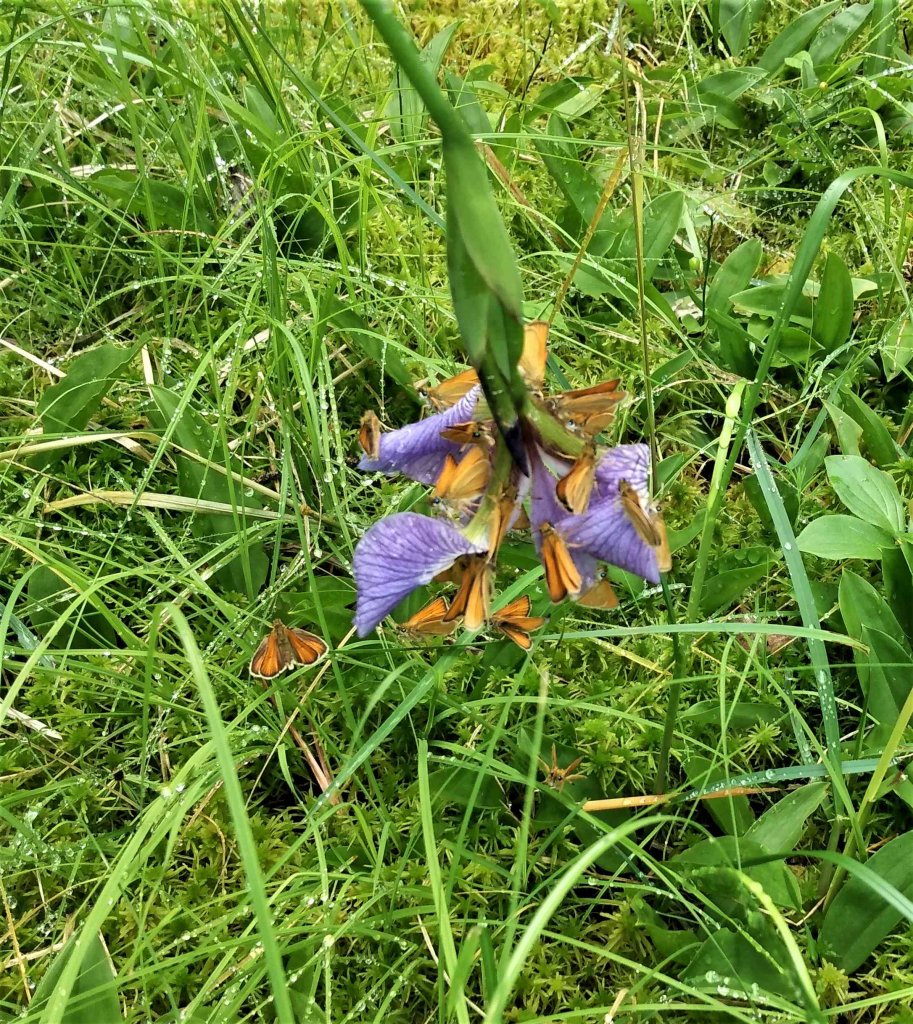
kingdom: Animalia
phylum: Arthropoda
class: Insecta
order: Lepidoptera
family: Hesperiidae
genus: Thymelicus
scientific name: Thymelicus lineola
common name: European Skipper
